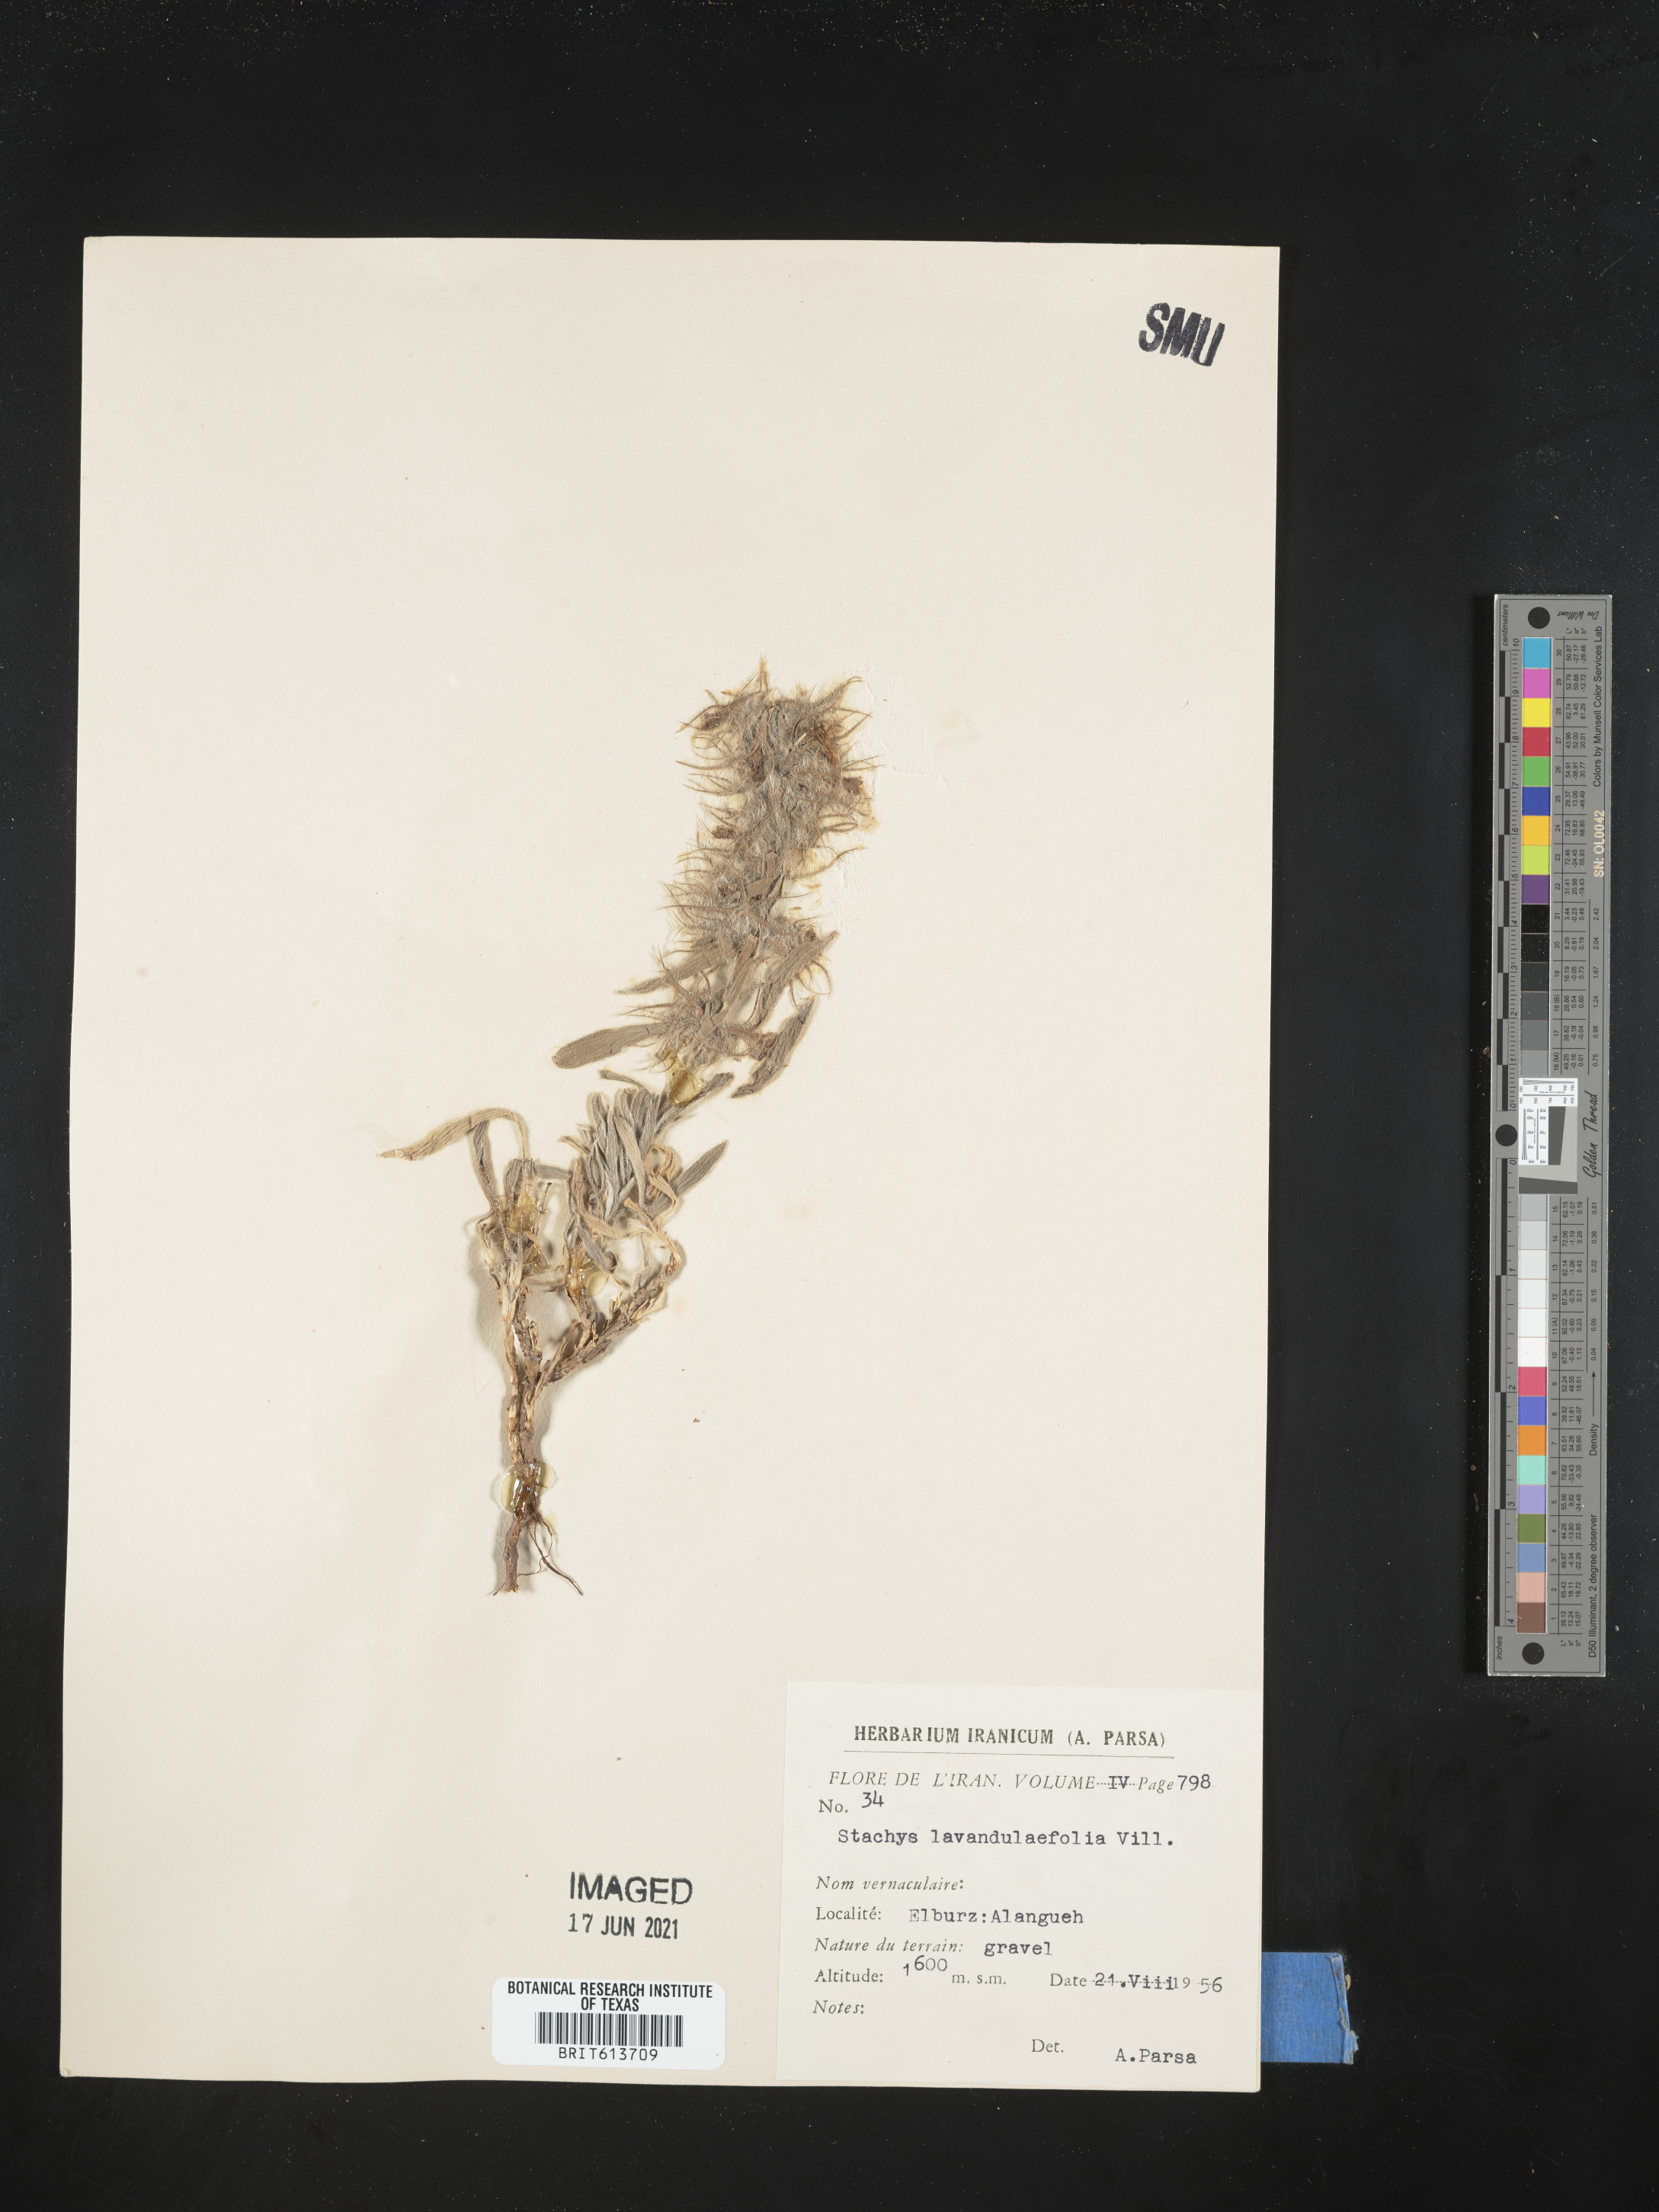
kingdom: Plantae
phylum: Tracheophyta
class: Magnoliopsida
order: Lamiales
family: Lamiaceae
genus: Stachys
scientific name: Stachys lavandulifolia
